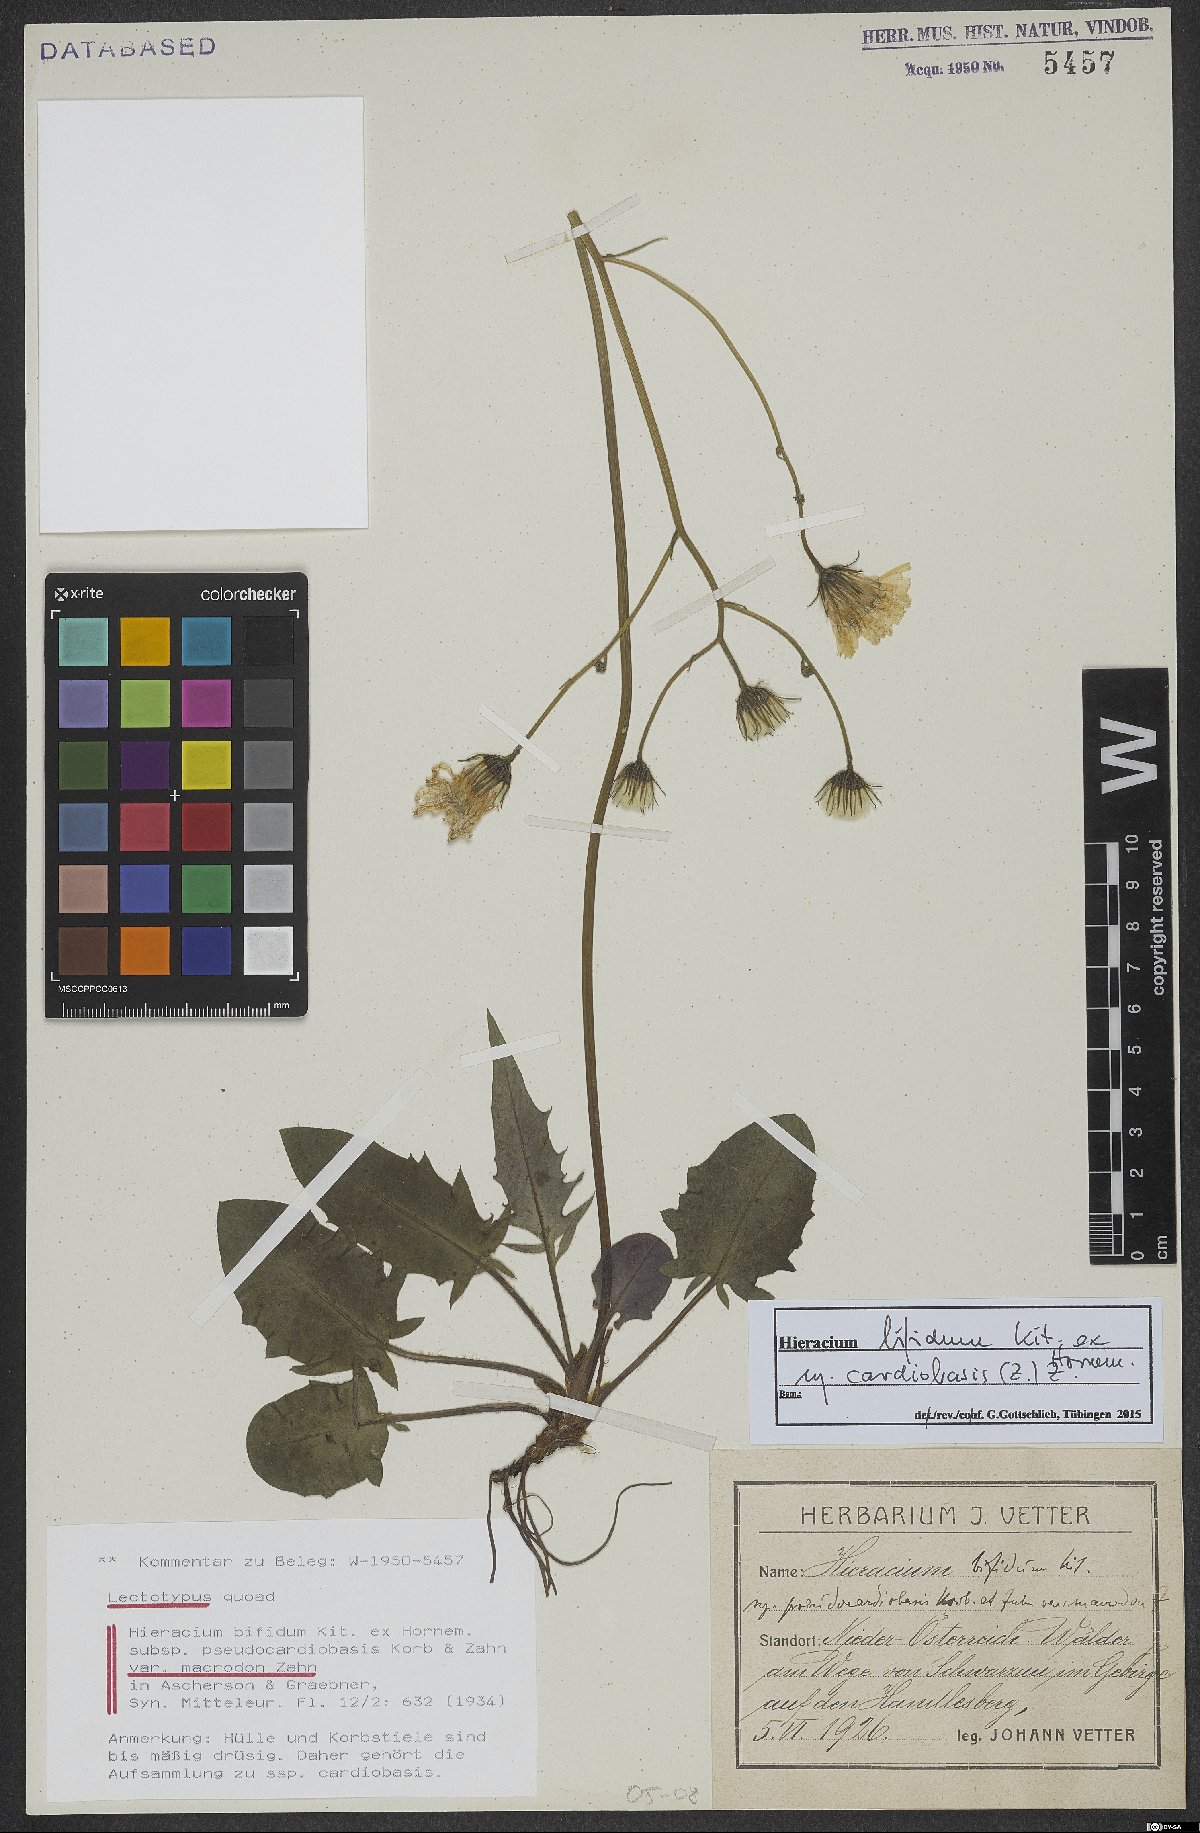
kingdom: Plantae
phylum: Tracheophyta
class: Magnoliopsida
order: Asterales
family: Asteraceae
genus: Hieracium
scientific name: Hieracium bifidum
